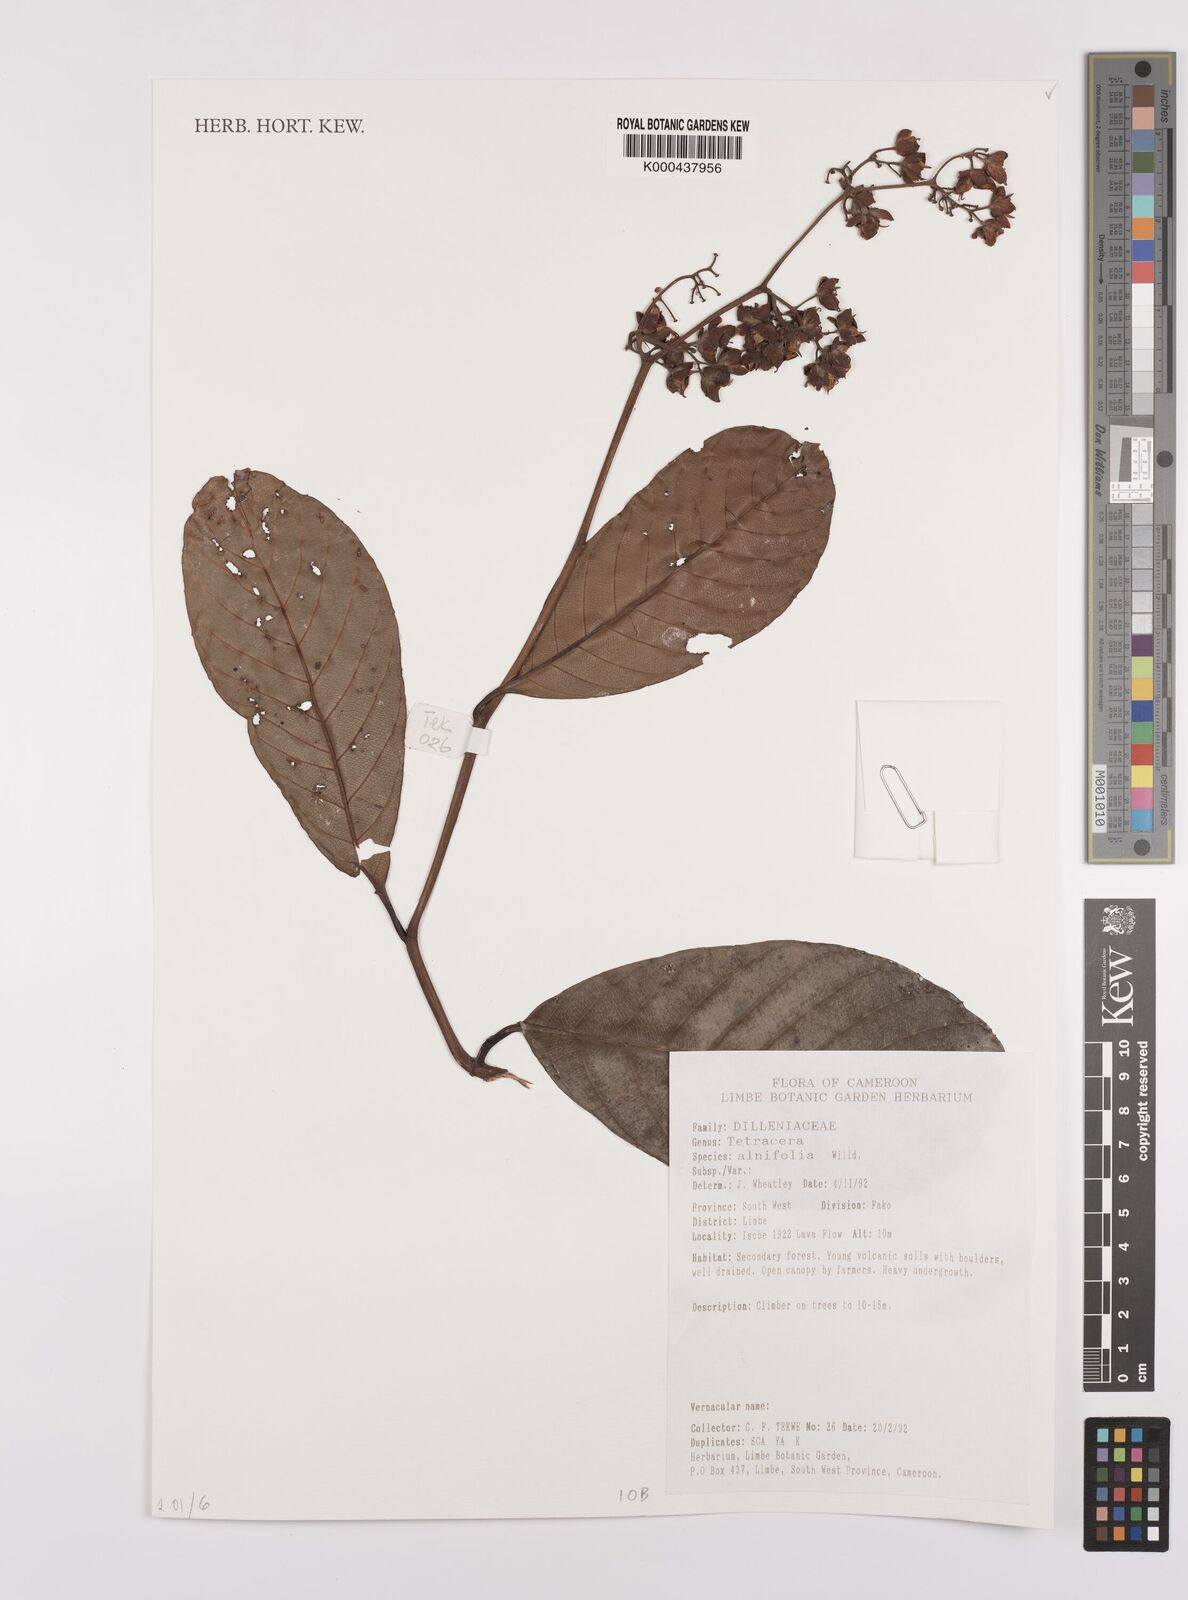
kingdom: Plantae
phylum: Tracheophyta
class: Magnoliopsida
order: Dilleniales
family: Dilleniaceae
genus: Tetracera
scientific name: Tetracera alnifolia
